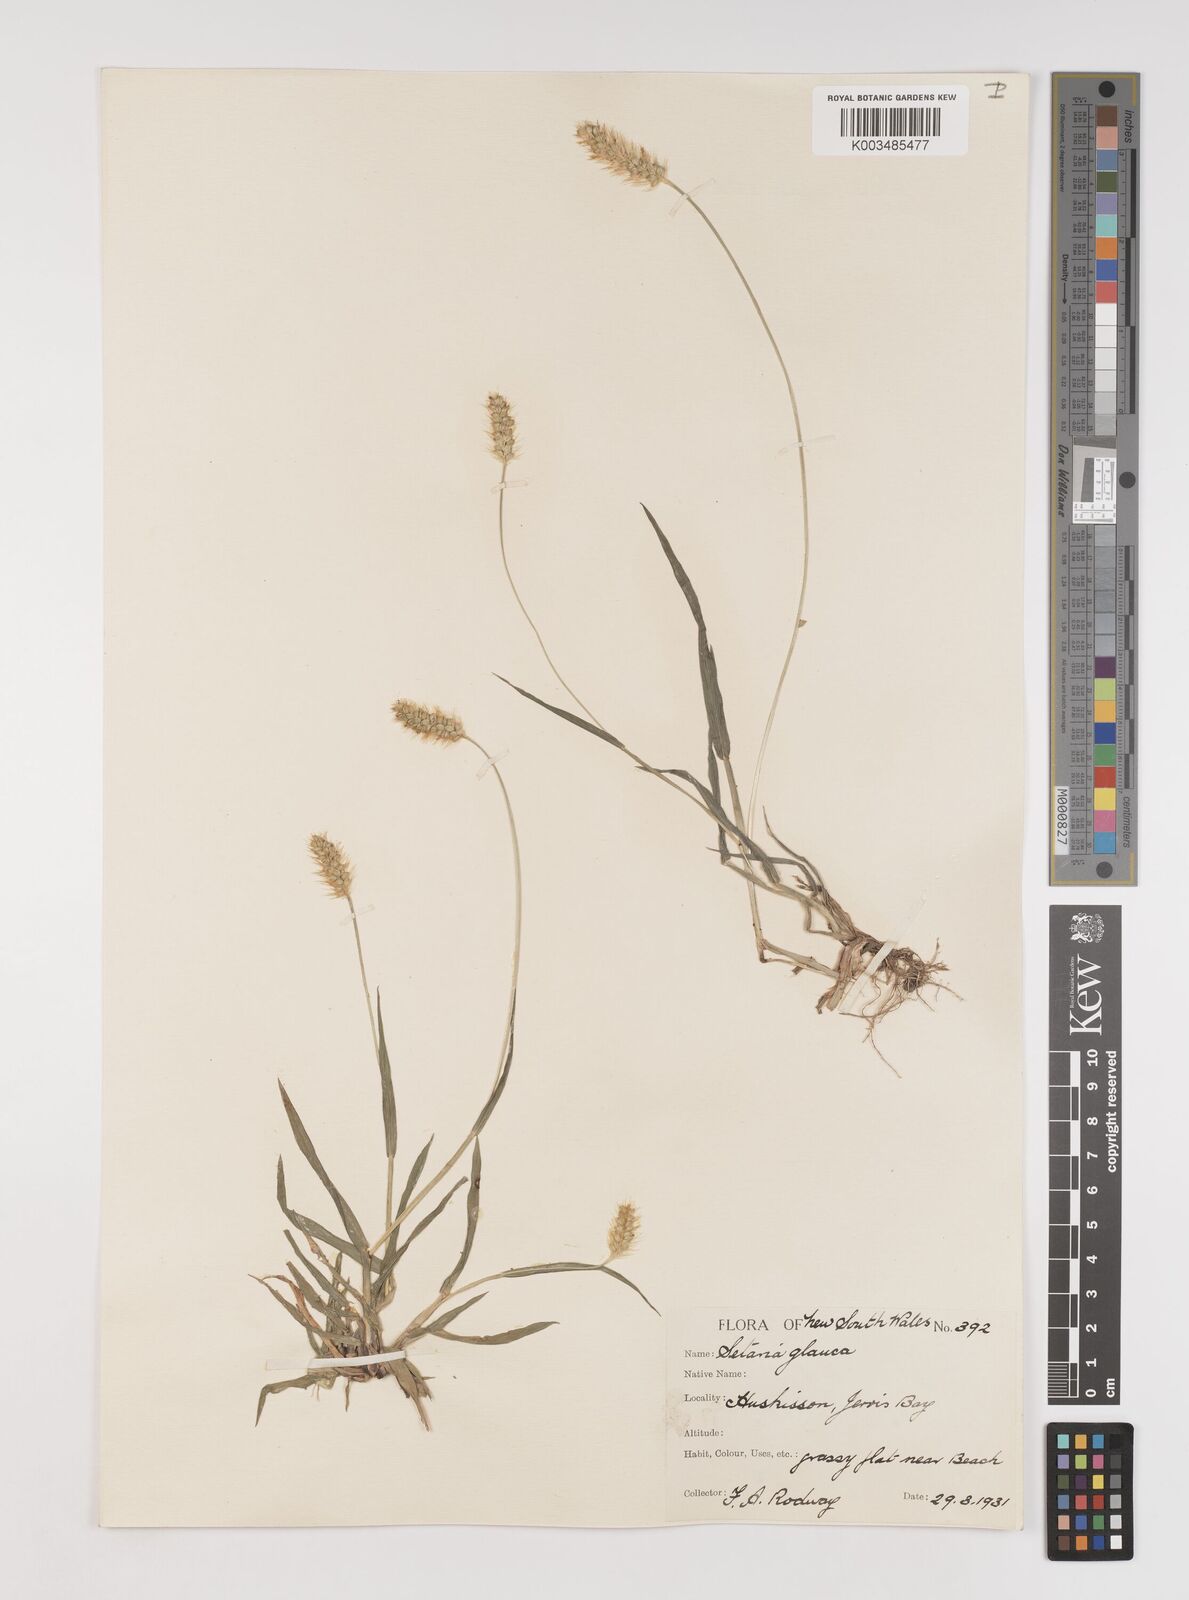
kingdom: Plantae
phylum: Tracheophyta
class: Liliopsida
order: Poales
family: Poaceae
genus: Setaria
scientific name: Setaria pumila
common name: Yellow bristle-grass
